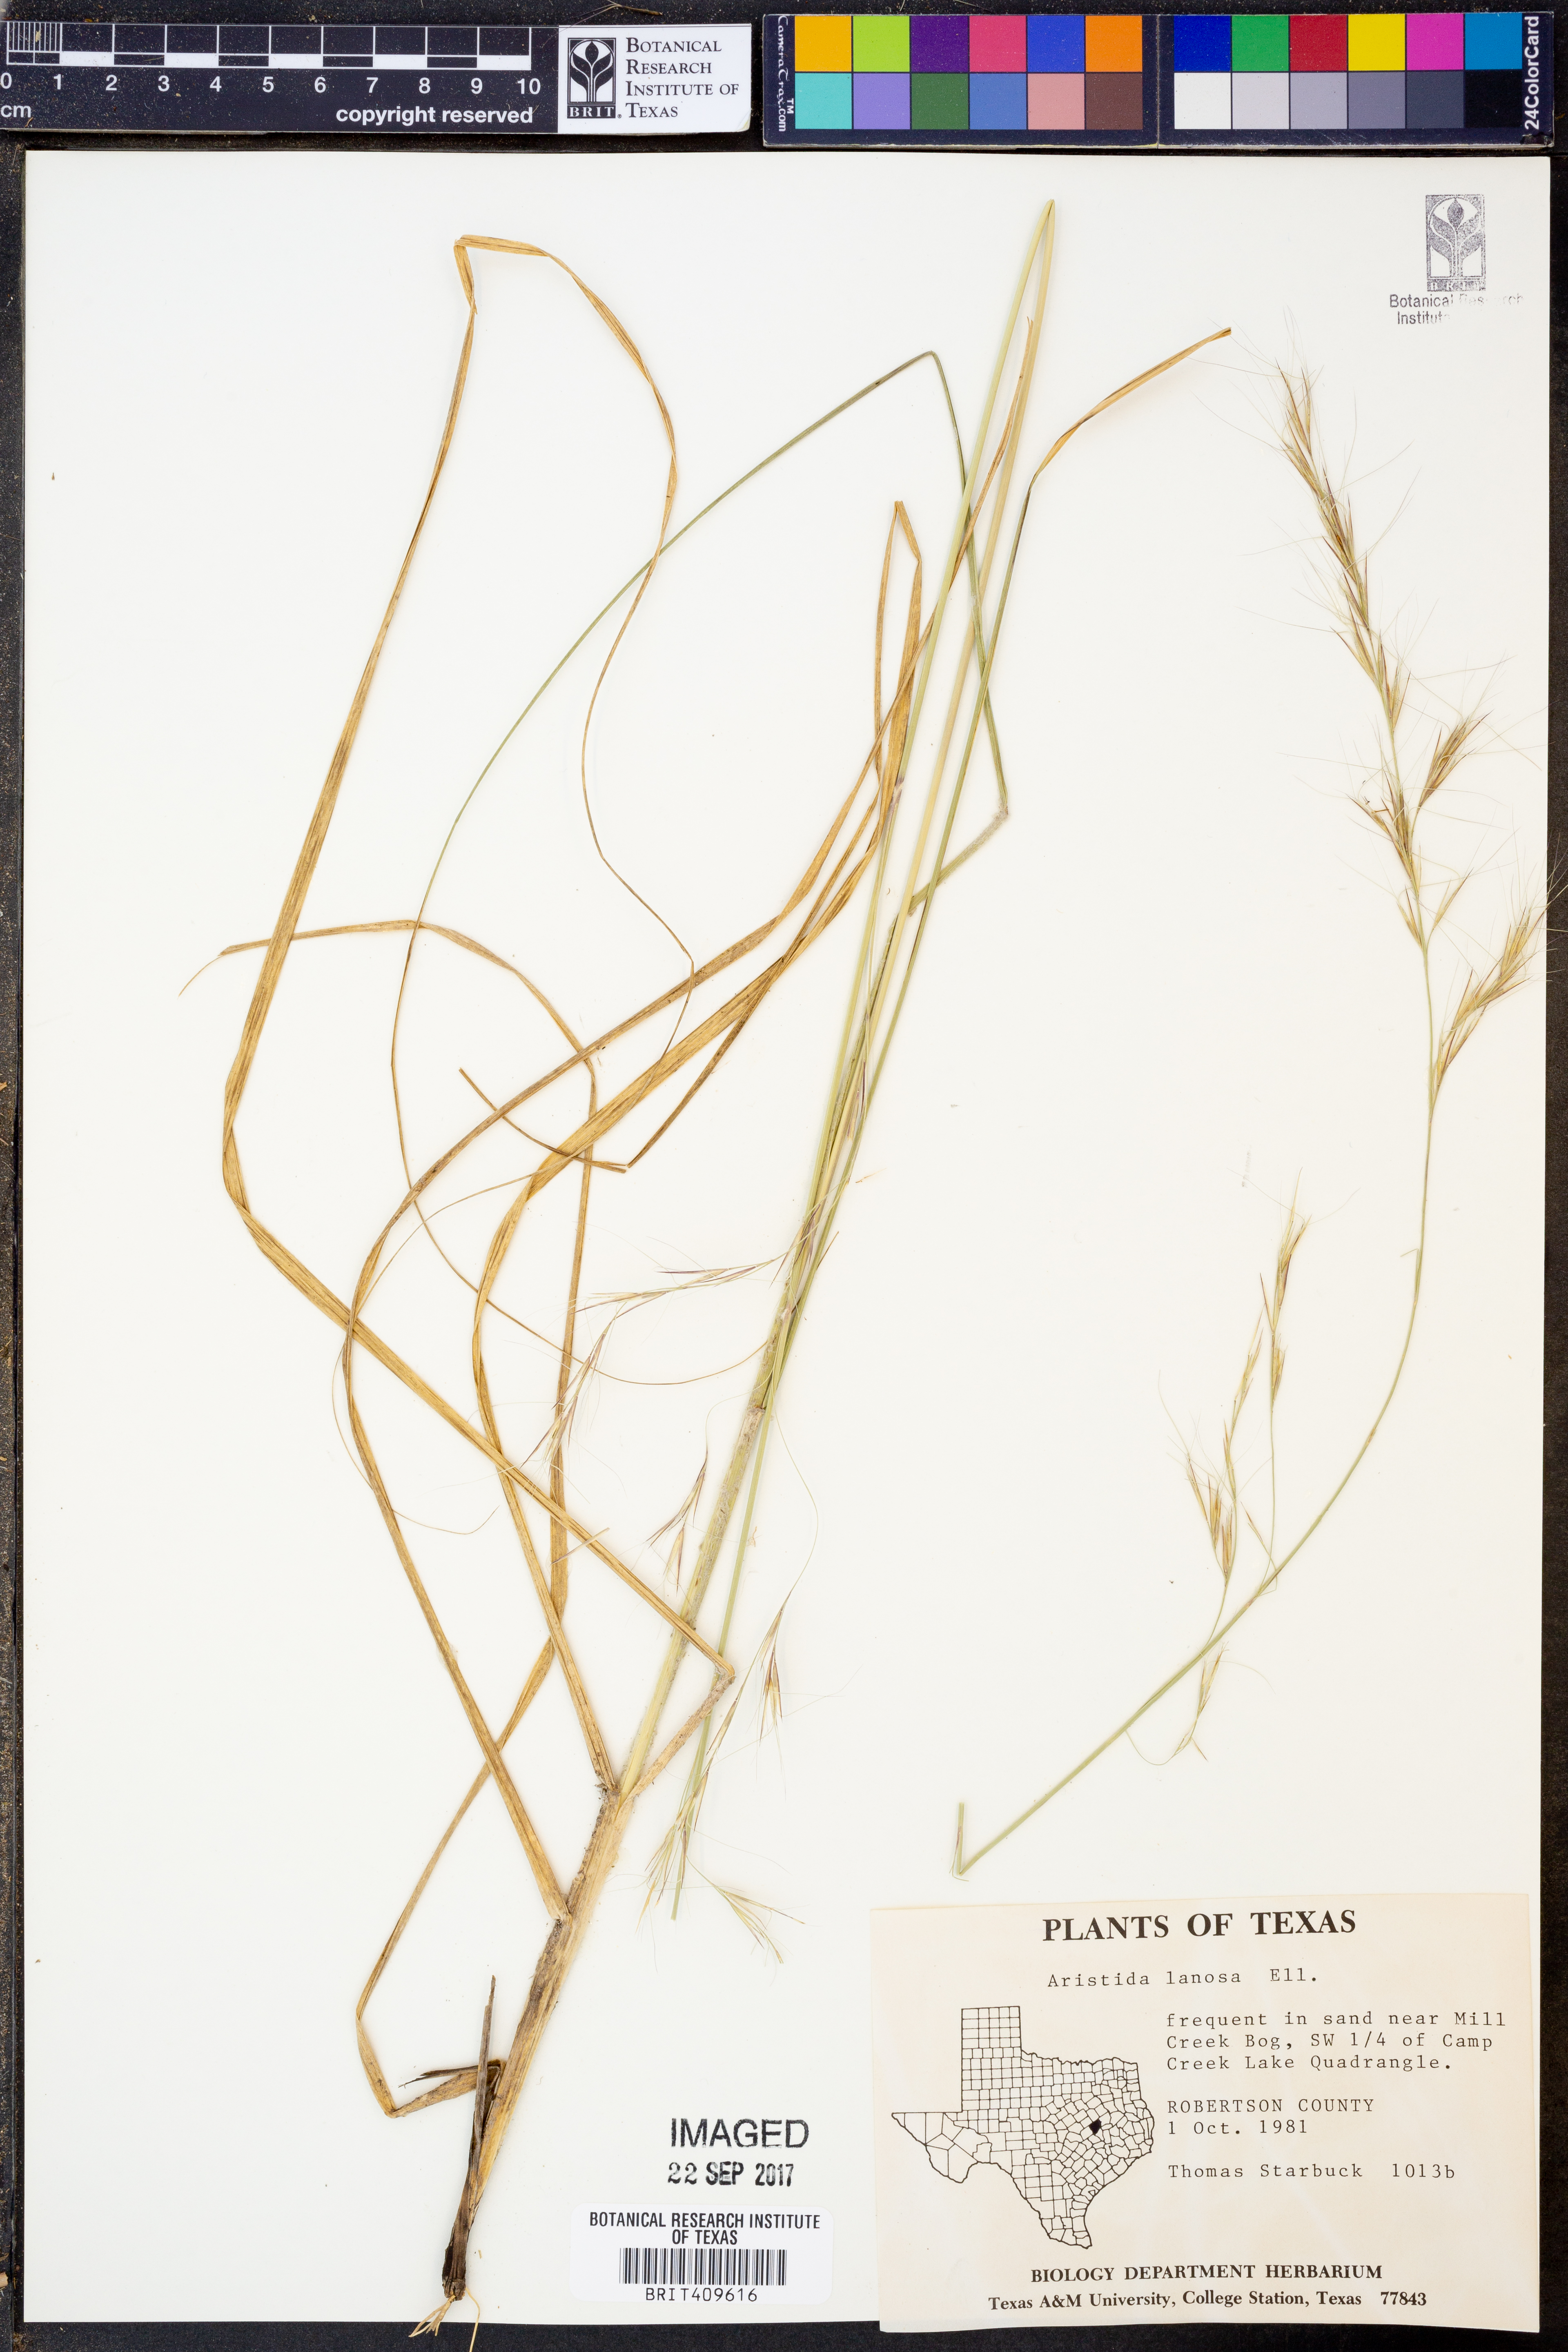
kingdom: Plantae
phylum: Tracheophyta
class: Liliopsida
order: Poales
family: Poaceae
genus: Aristida
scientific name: Aristida lanosa
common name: Woolly three-awn
